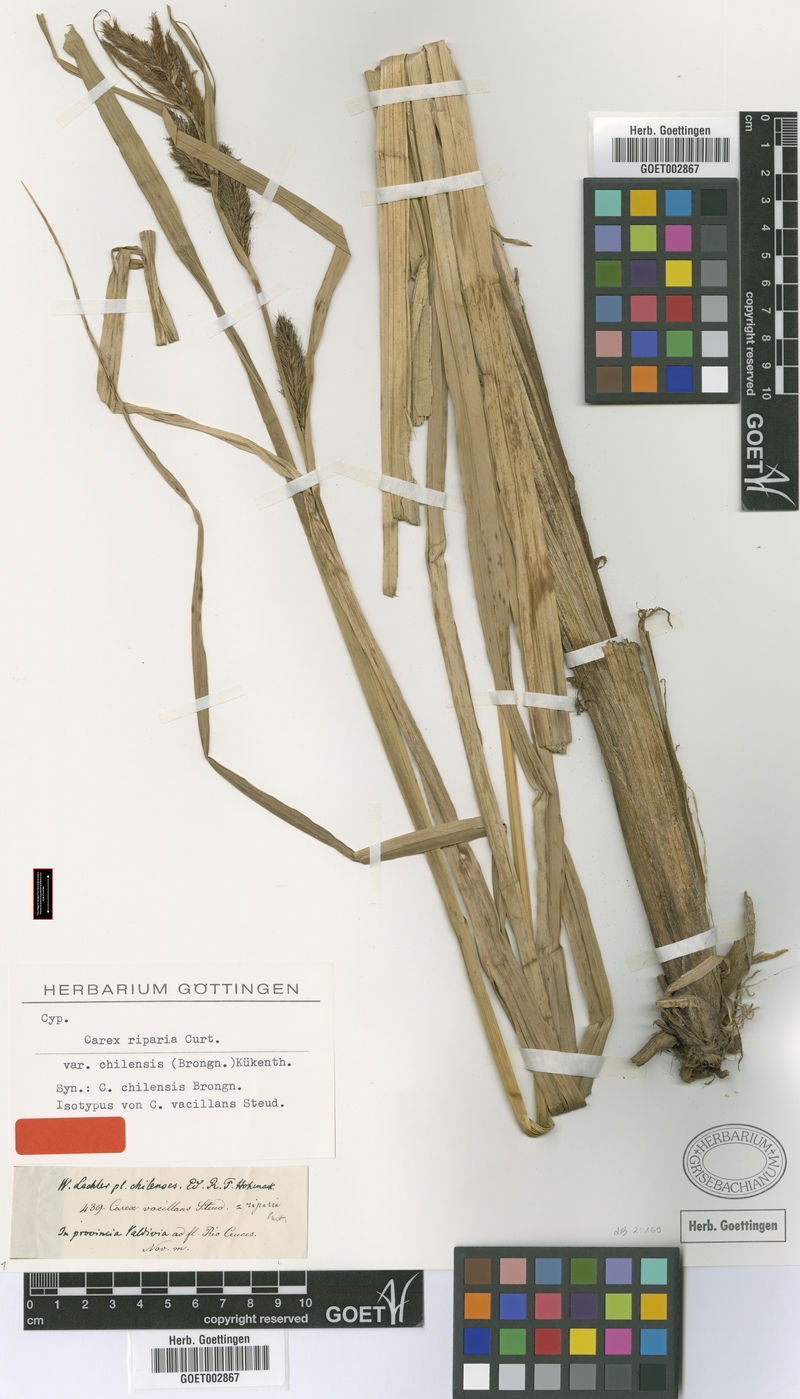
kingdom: Plantae
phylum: Tracheophyta
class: Liliopsida
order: Poales
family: Cyperaceae
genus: Carex
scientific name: Carex chilensis
